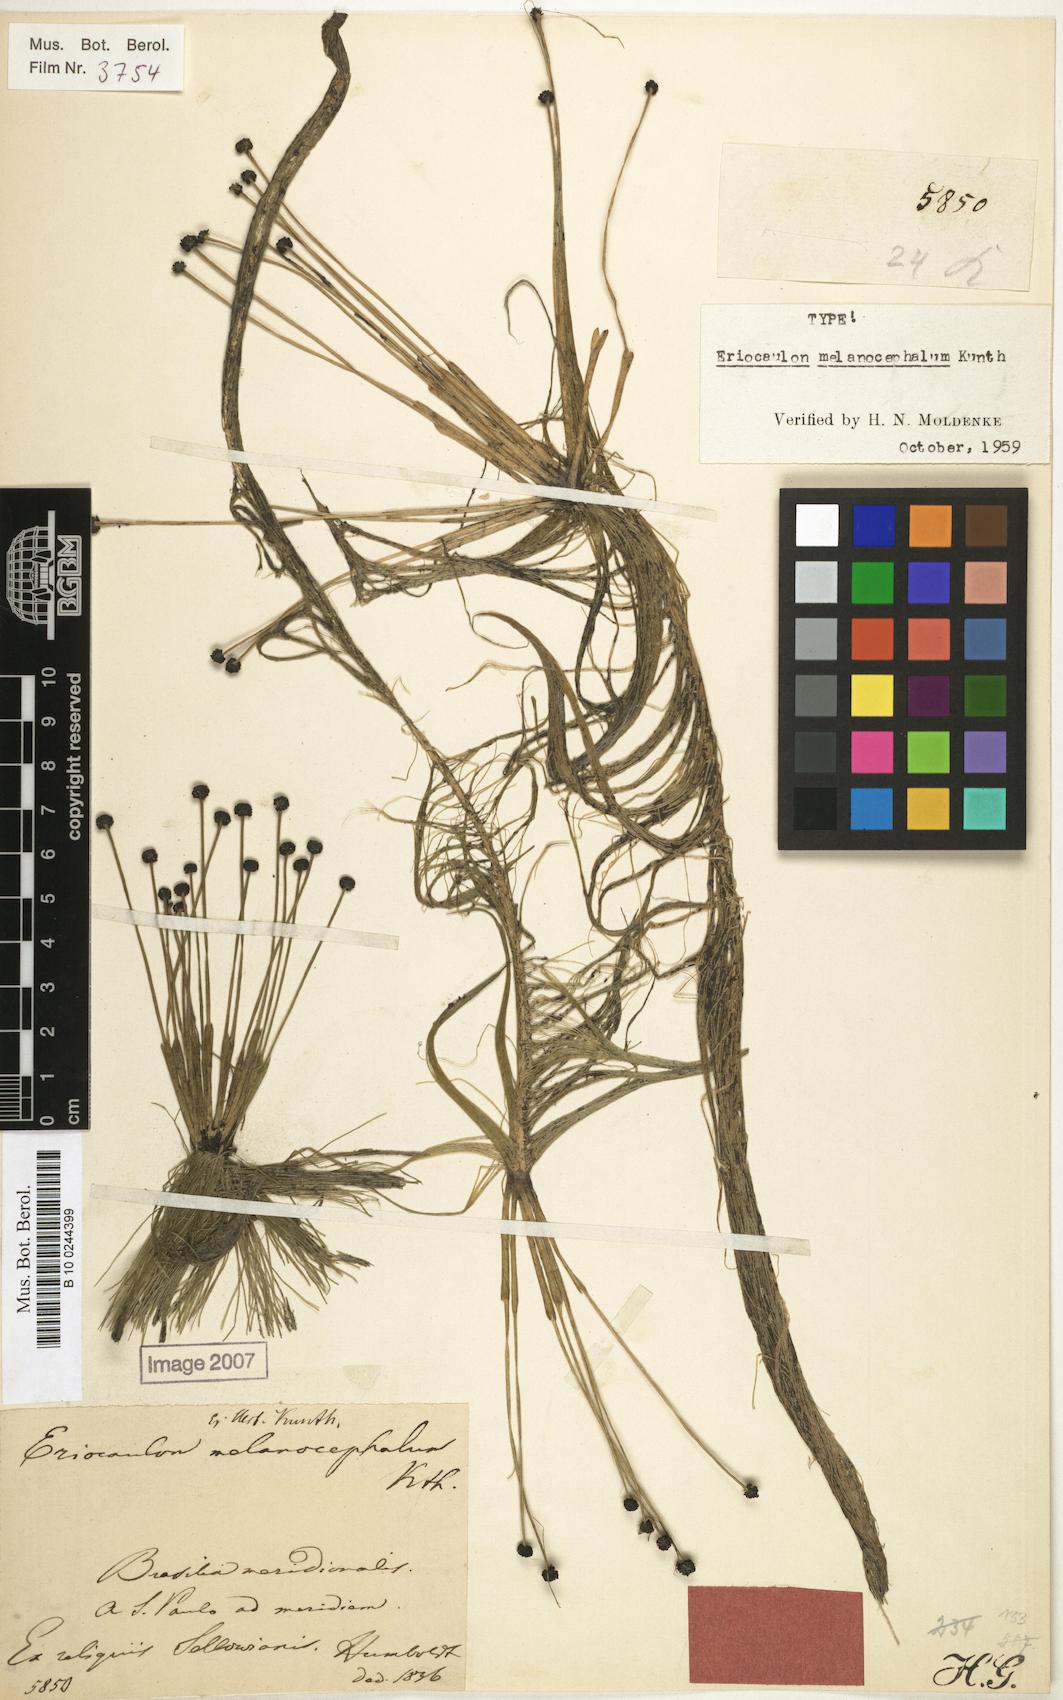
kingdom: Plantae
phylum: Tracheophyta
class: Liliopsida
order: Poales
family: Eriocaulaceae
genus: Eriocaulon
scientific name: Eriocaulon setaceum
